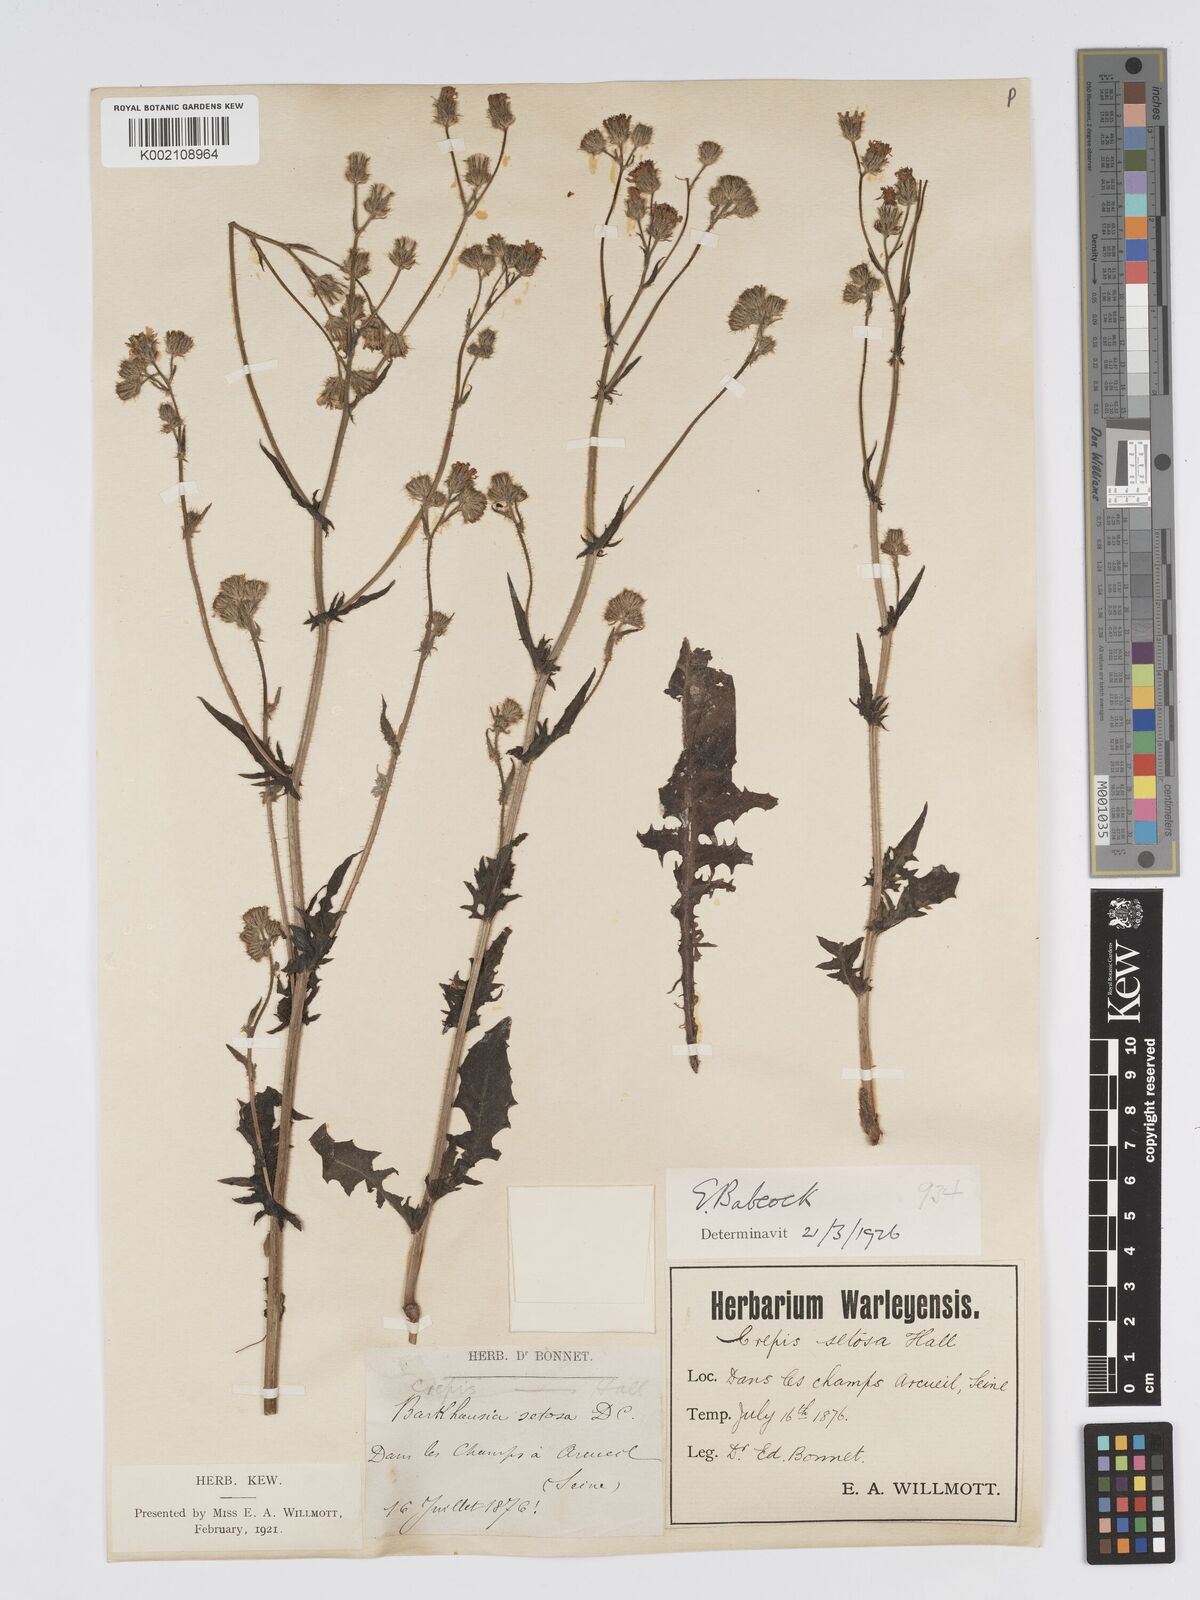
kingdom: Plantae
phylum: Tracheophyta
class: Magnoliopsida
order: Asterales
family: Asteraceae
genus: Crepis
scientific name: Crepis setosa
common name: Bristly hawk's-beard
